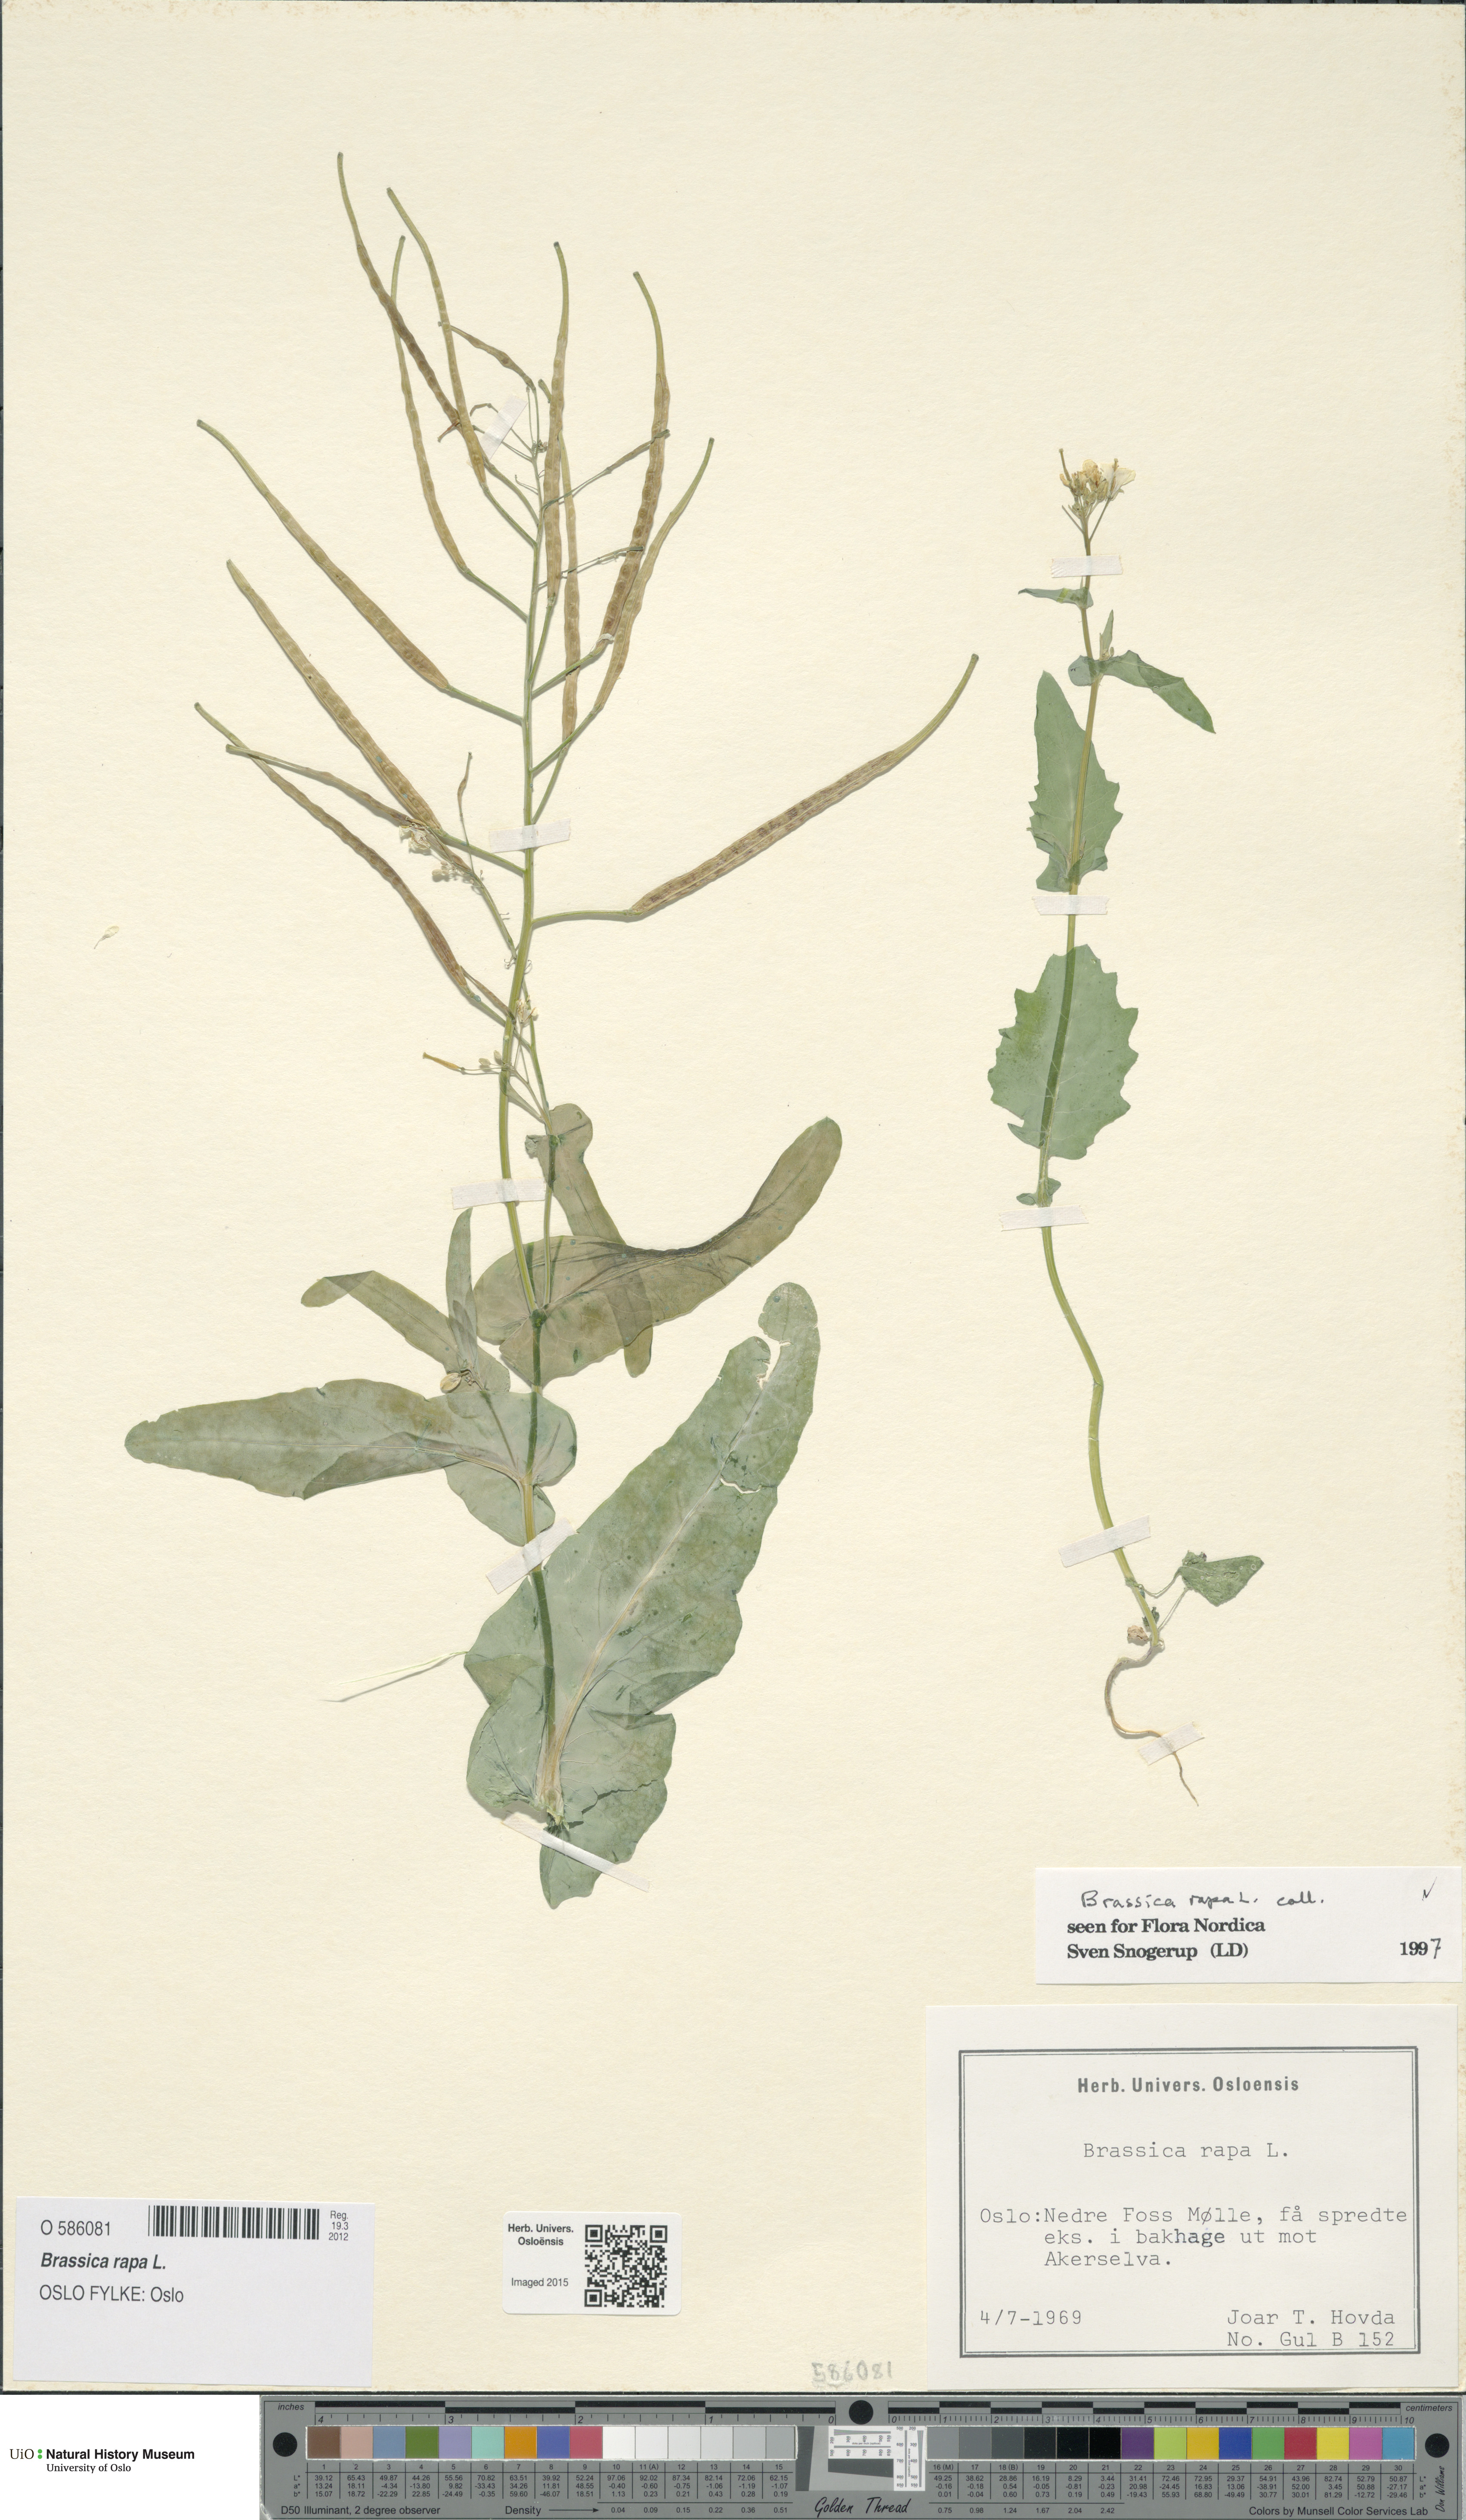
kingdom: Plantae
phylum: Tracheophyta
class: Magnoliopsida
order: Brassicales
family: Brassicaceae
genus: Brassica
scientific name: Brassica rapa
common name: Field mustard
